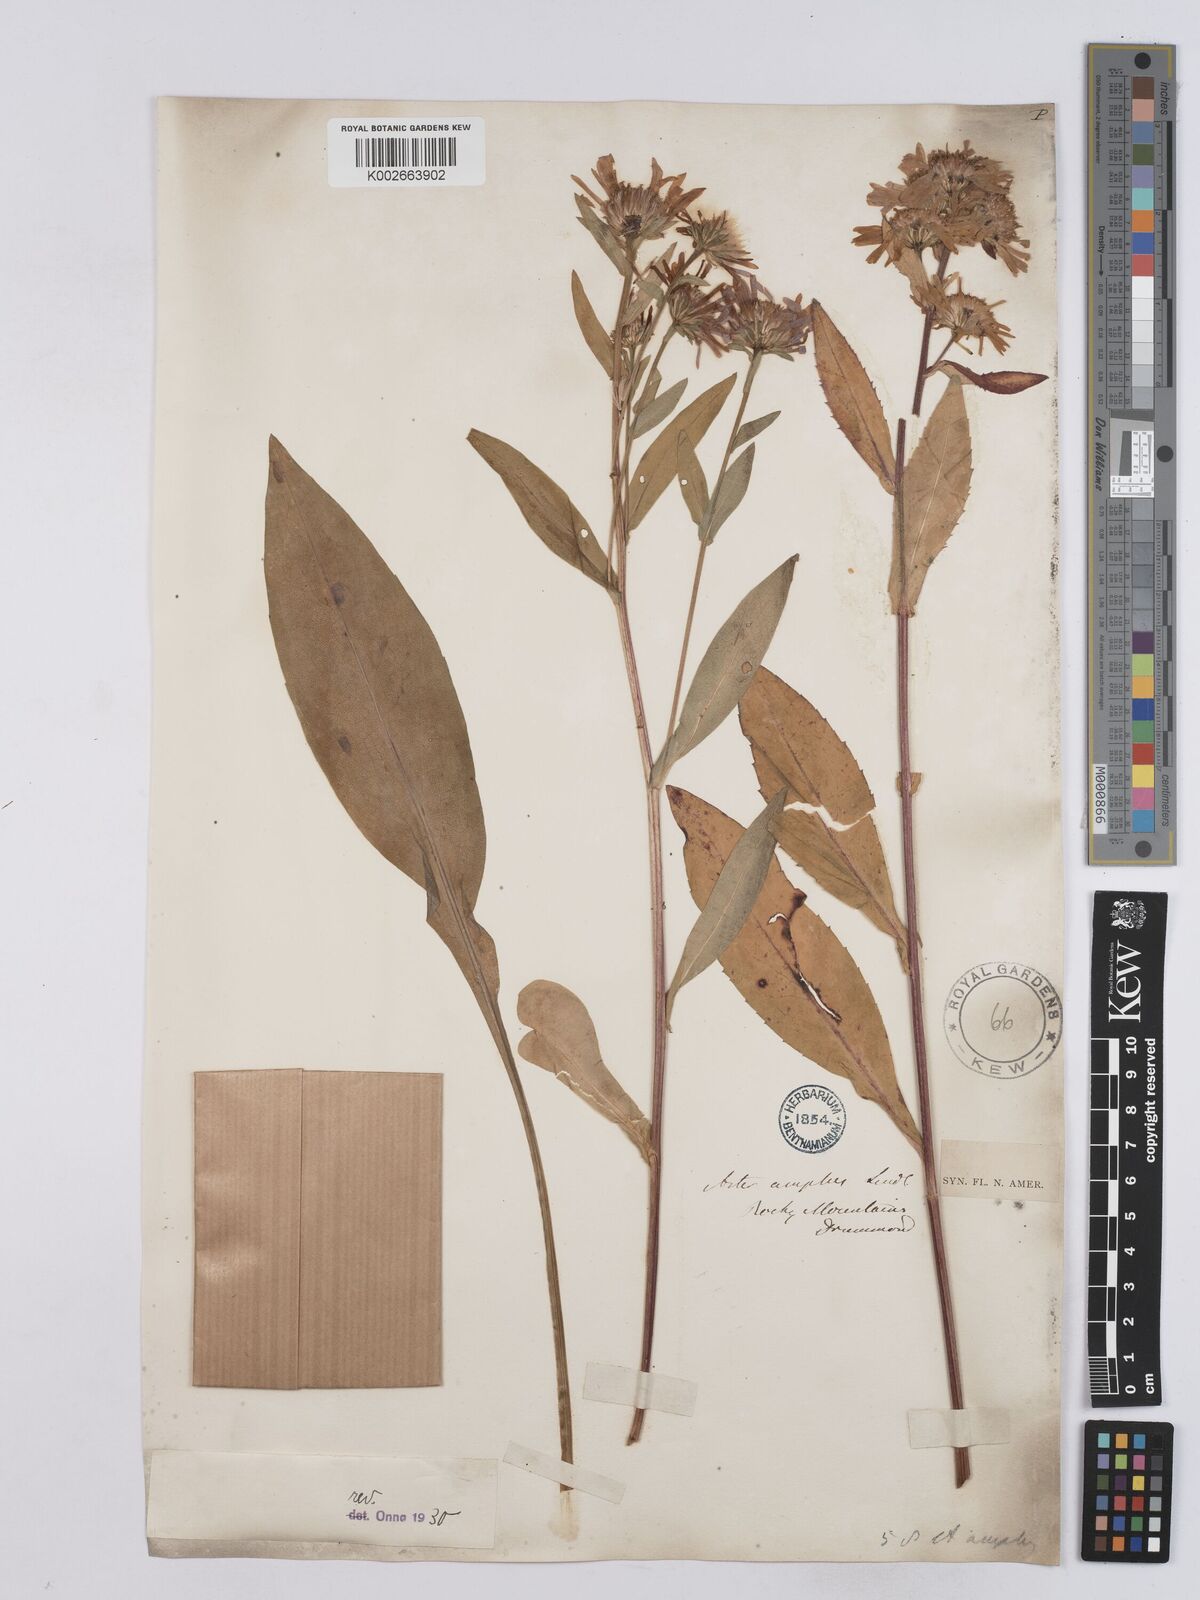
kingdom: Plantae
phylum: Tracheophyta
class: Magnoliopsida
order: Asterales
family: Asteraceae
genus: Symphyotrichum
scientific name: Symphyotrichum subspicatum
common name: Douglas' aster
